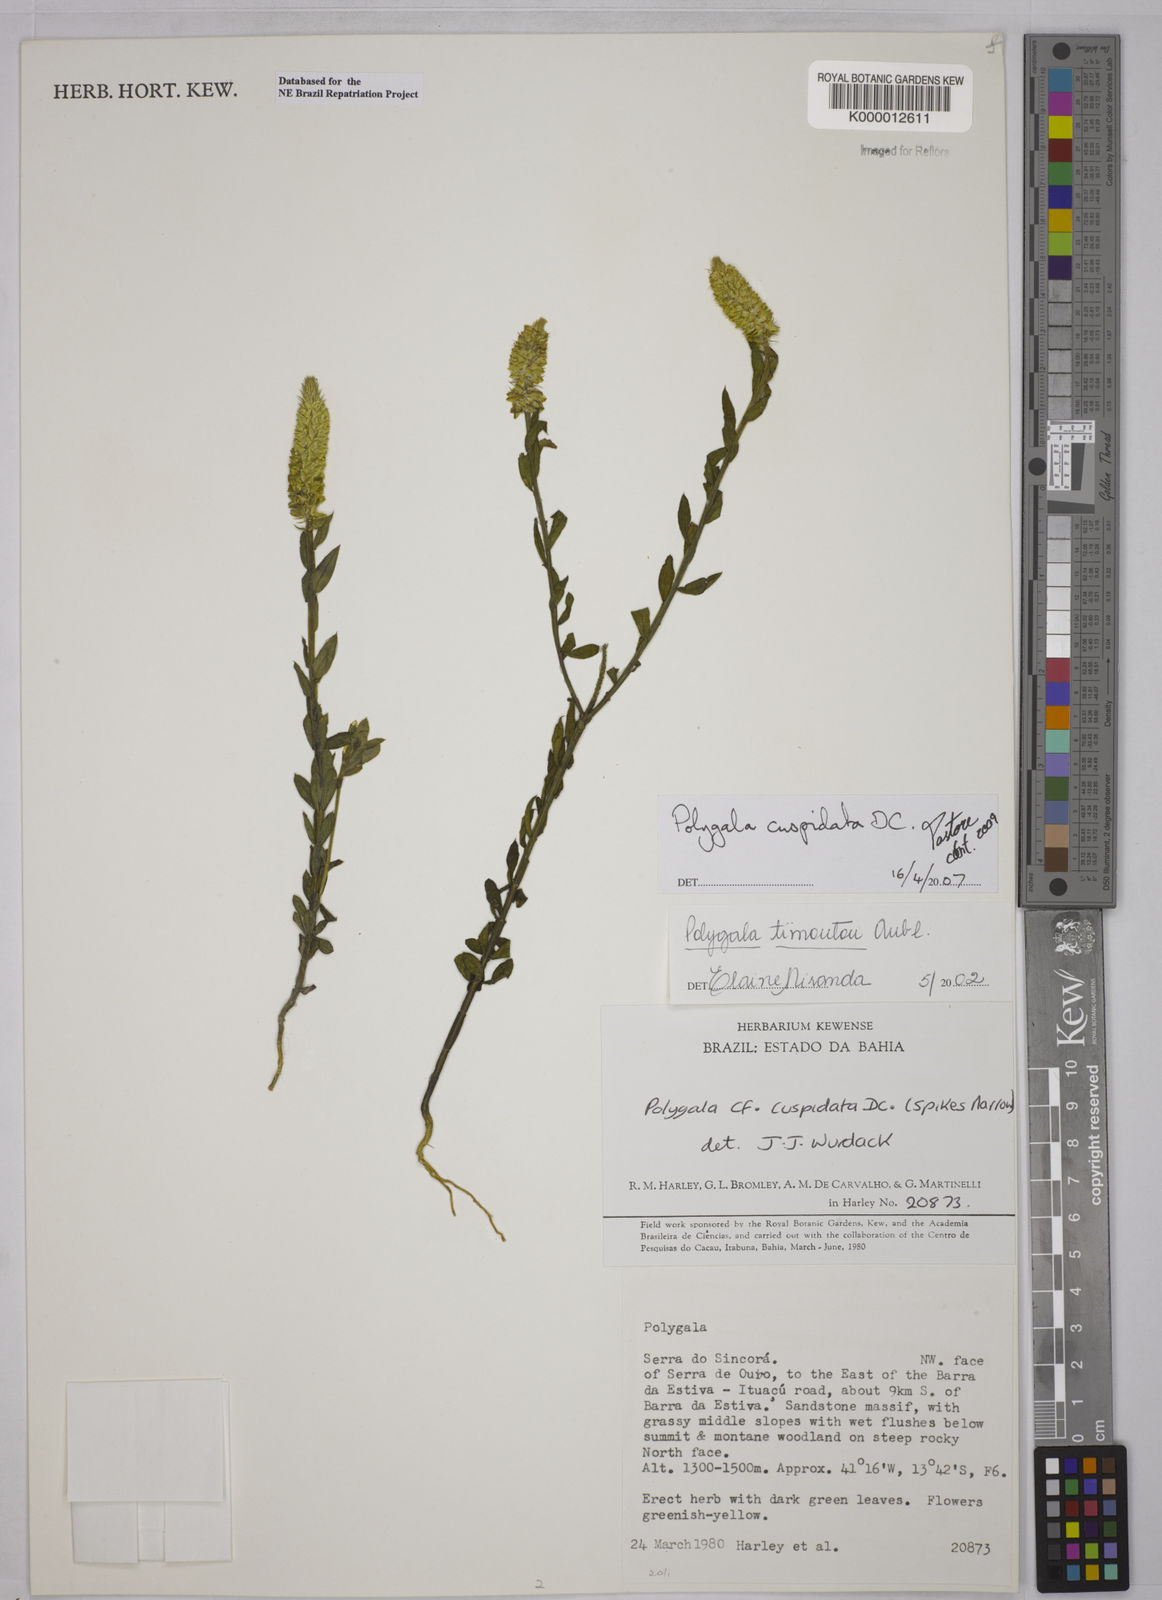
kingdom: Plantae
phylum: Tracheophyta
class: Magnoliopsida
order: Fabales
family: Polygalaceae
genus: Polygala
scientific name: Polygala timoutou
